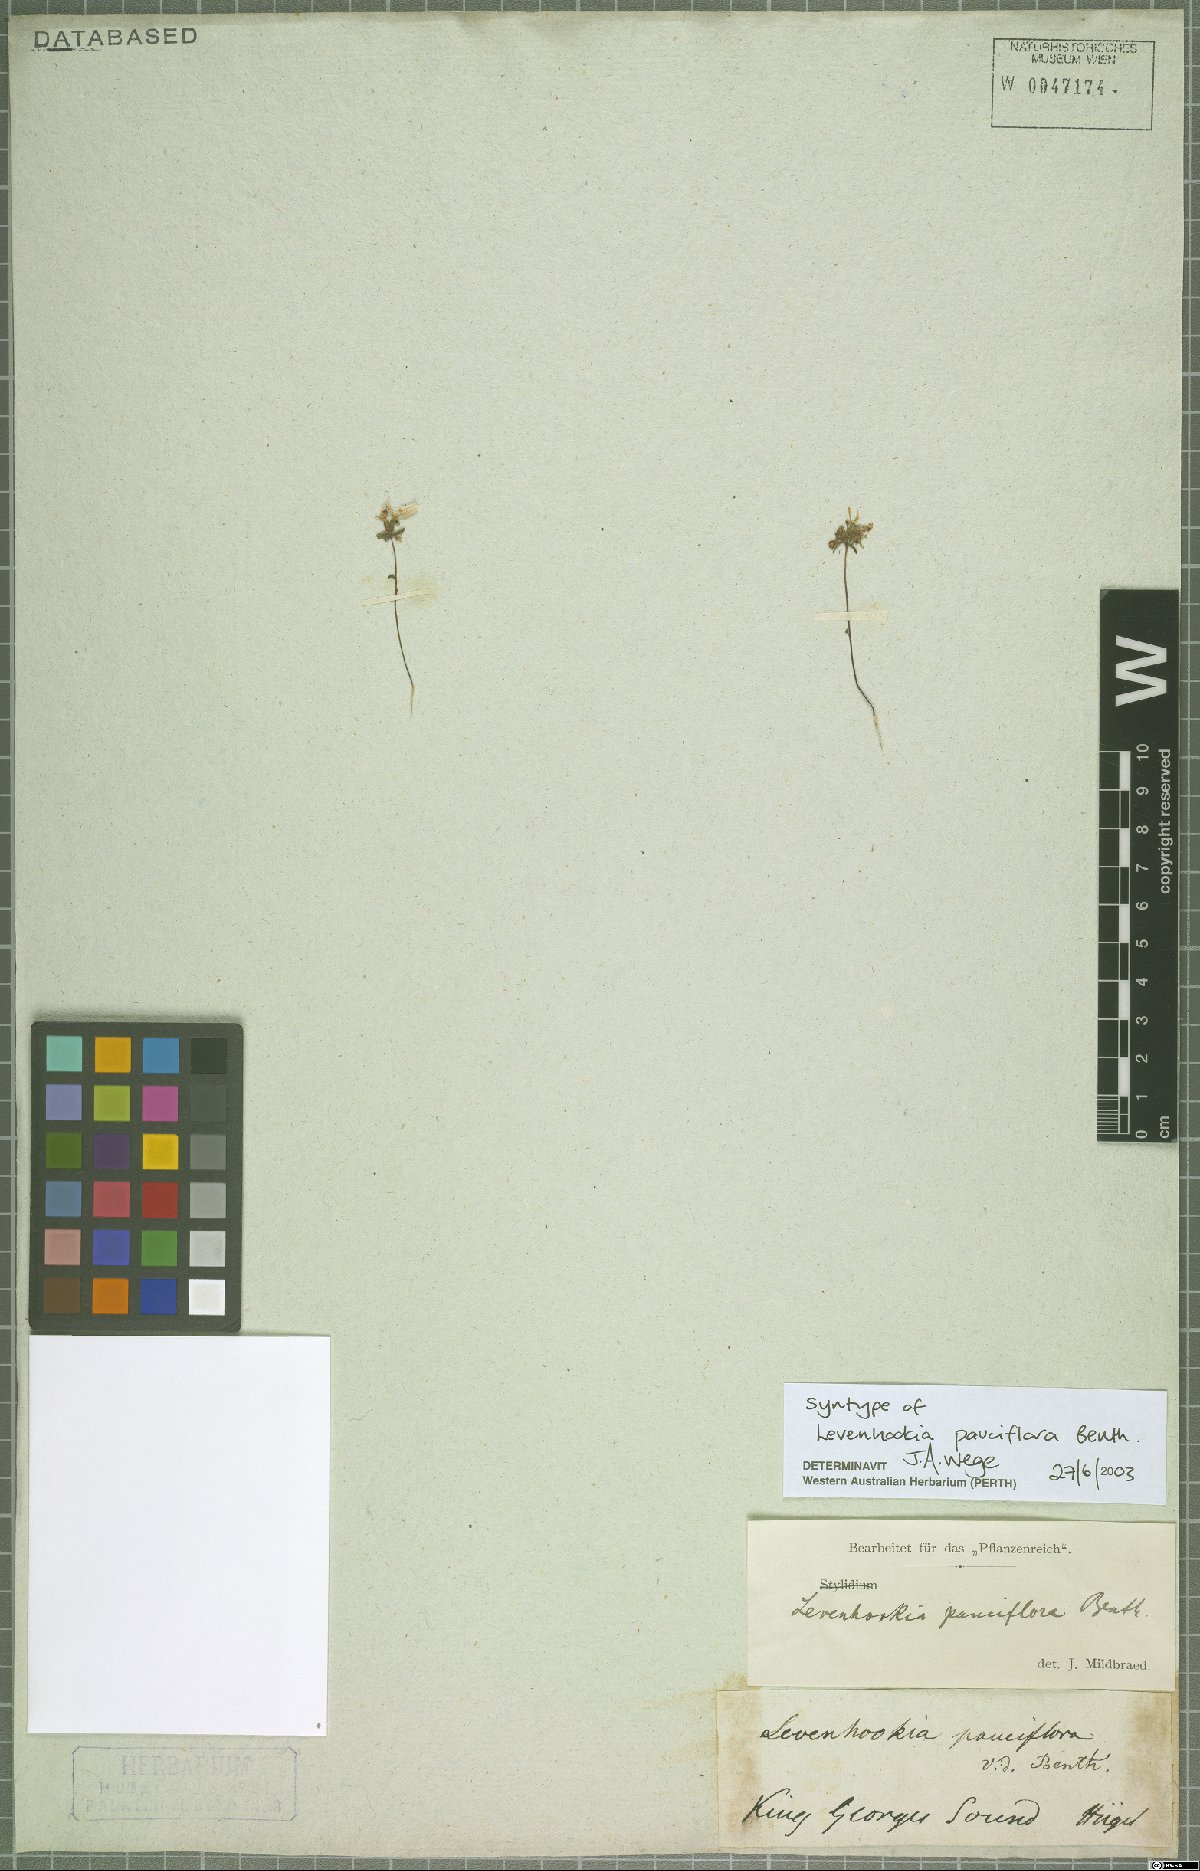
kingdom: Plantae
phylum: Tracheophyta
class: Magnoliopsida
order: Asterales
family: Stylidiaceae
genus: Levenhookia
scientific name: Levenhookia pauciflora
